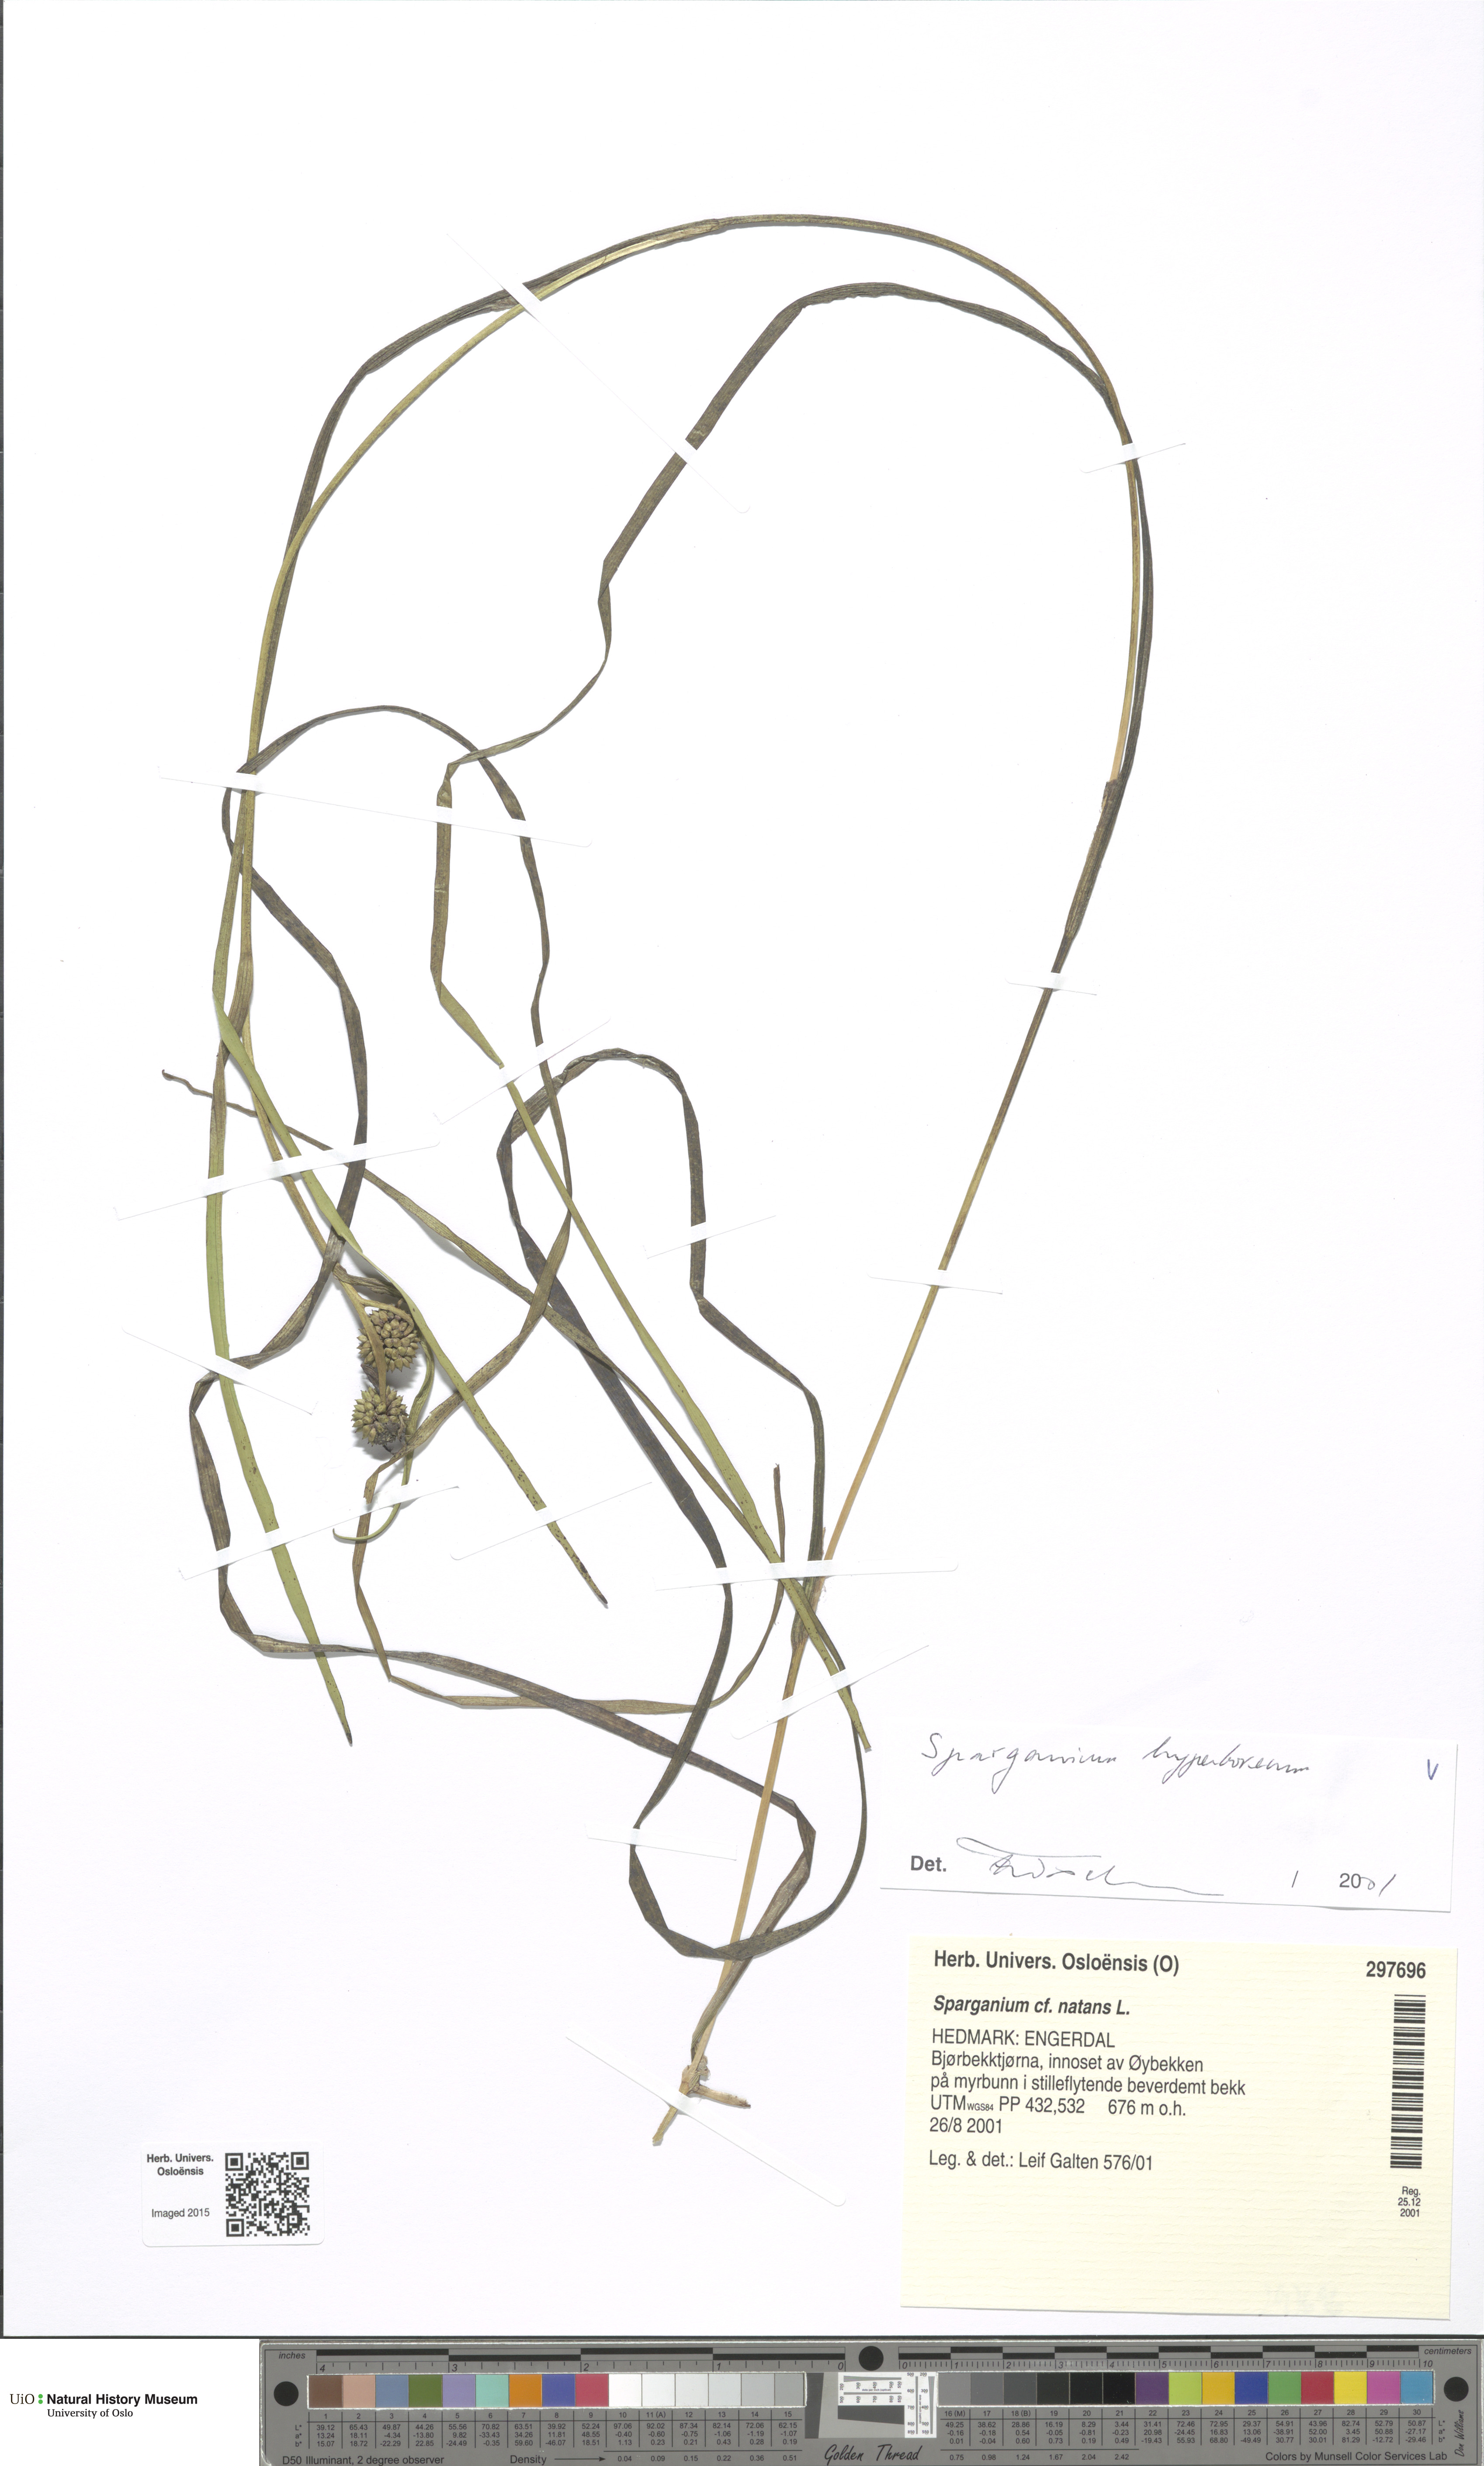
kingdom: Plantae
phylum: Tracheophyta
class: Liliopsida
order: Poales
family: Typhaceae
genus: Sparganium
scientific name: Sparganium hyperboreum
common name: Arctic burreed
